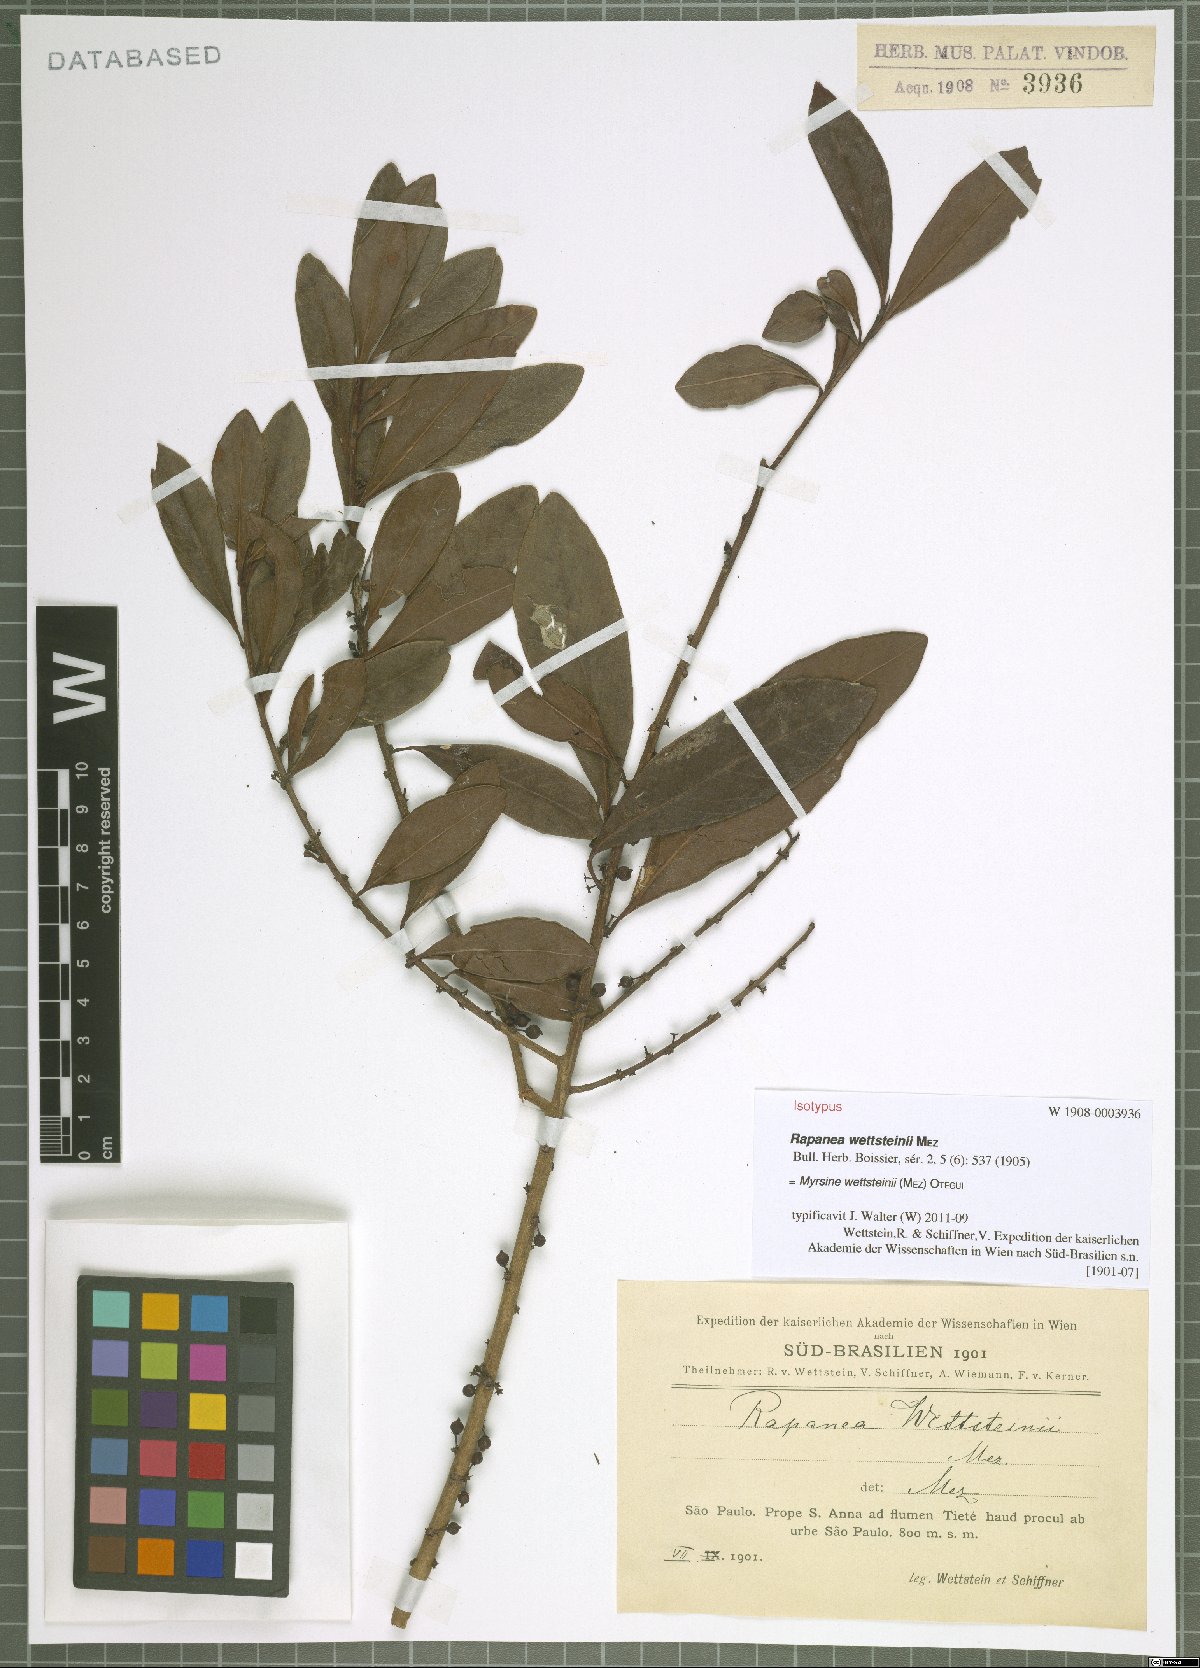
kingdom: Plantae
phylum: Tracheophyta
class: Magnoliopsida
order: Ericales
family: Primulaceae
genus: Myrsine
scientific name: Myrsine wettsteinii
